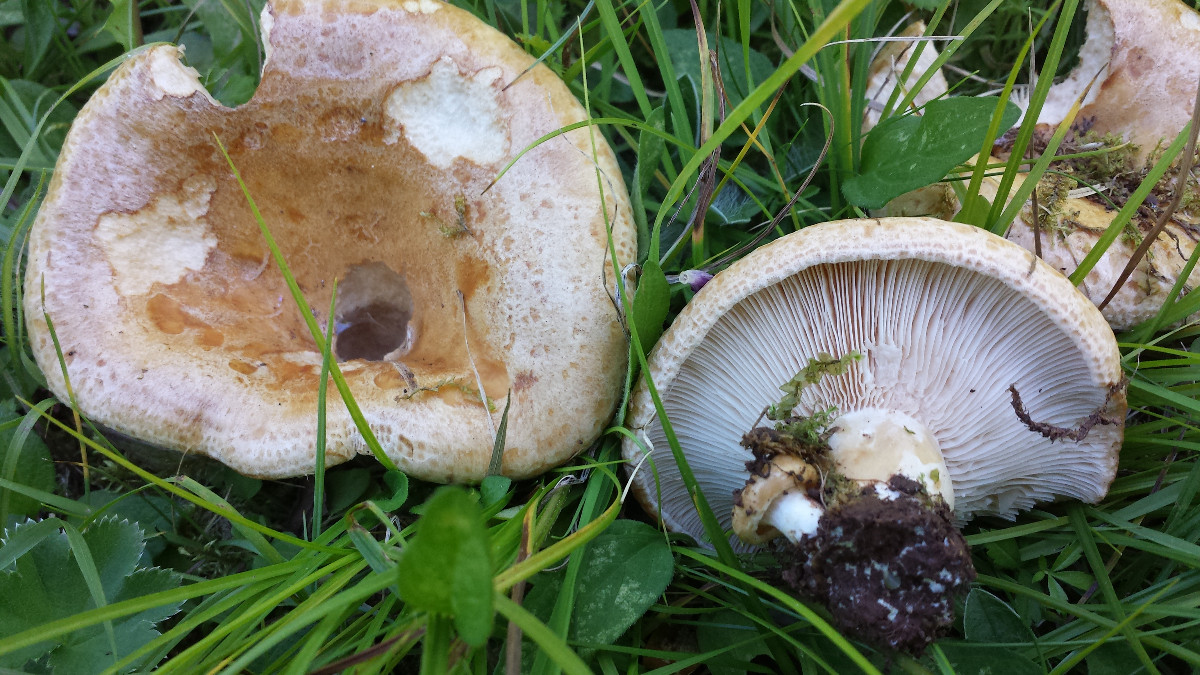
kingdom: Fungi
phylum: Basidiomycota
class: Agaricomycetes
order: Russulales
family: Russulaceae
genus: Lactarius
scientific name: Lactarius acerrimus
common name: brændende mælkehat
